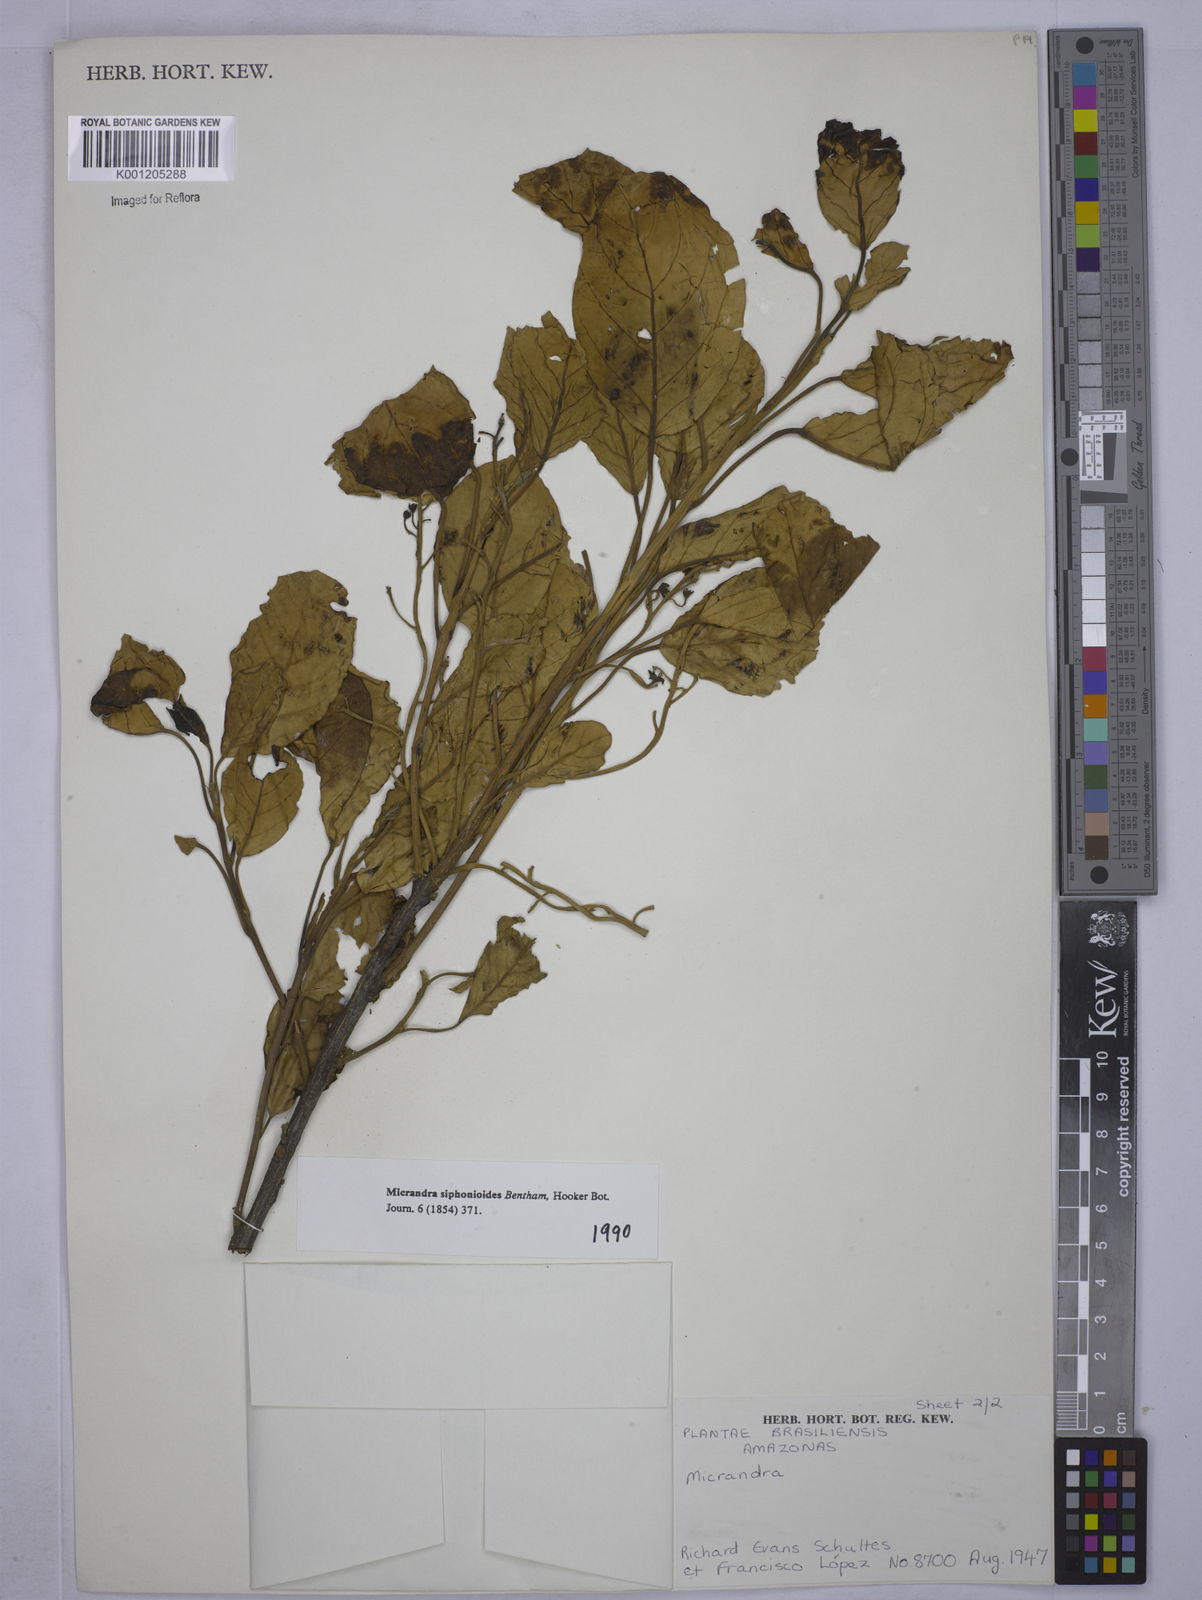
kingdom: Plantae
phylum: Tracheophyta
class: Magnoliopsida
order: Malpighiales
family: Euphorbiaceae
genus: Micrandra
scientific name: Micrandra siphonioides
